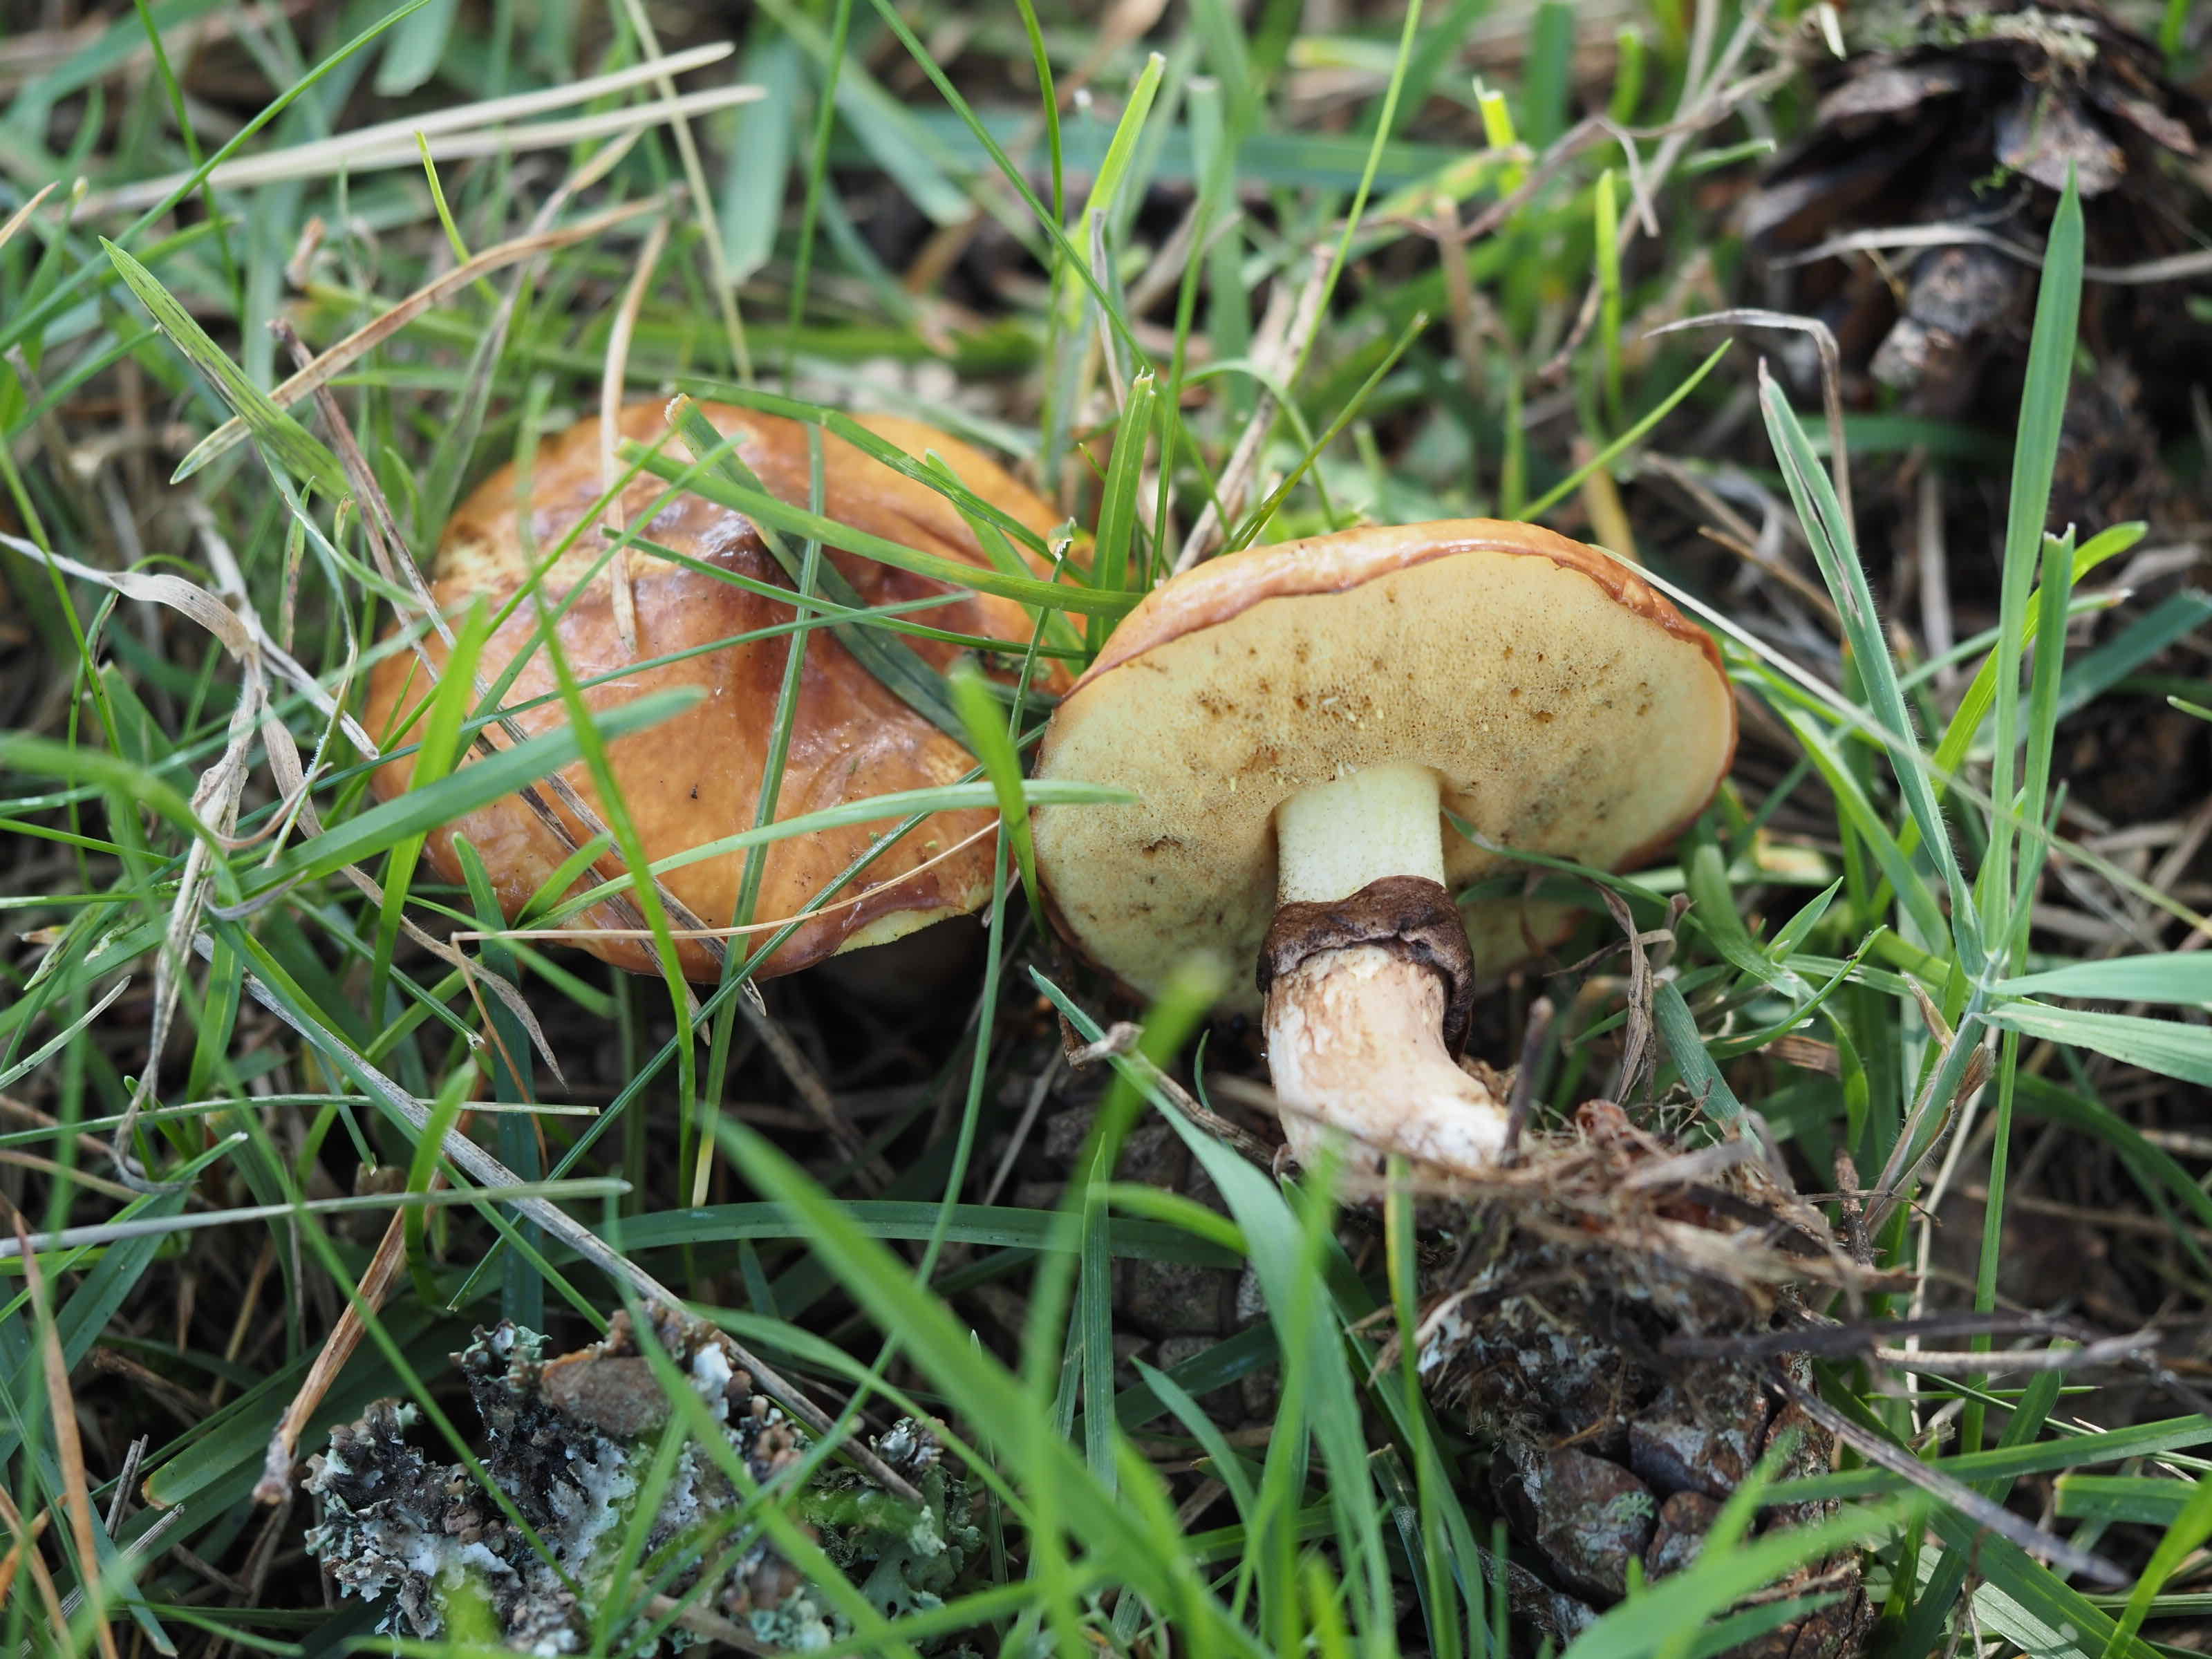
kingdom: Fungi
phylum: Basidiomycota
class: Agaricomycetes
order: Boletales
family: Suillaceae
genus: Suillus
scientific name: Suillus luteus
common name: brungul slimrørhat
